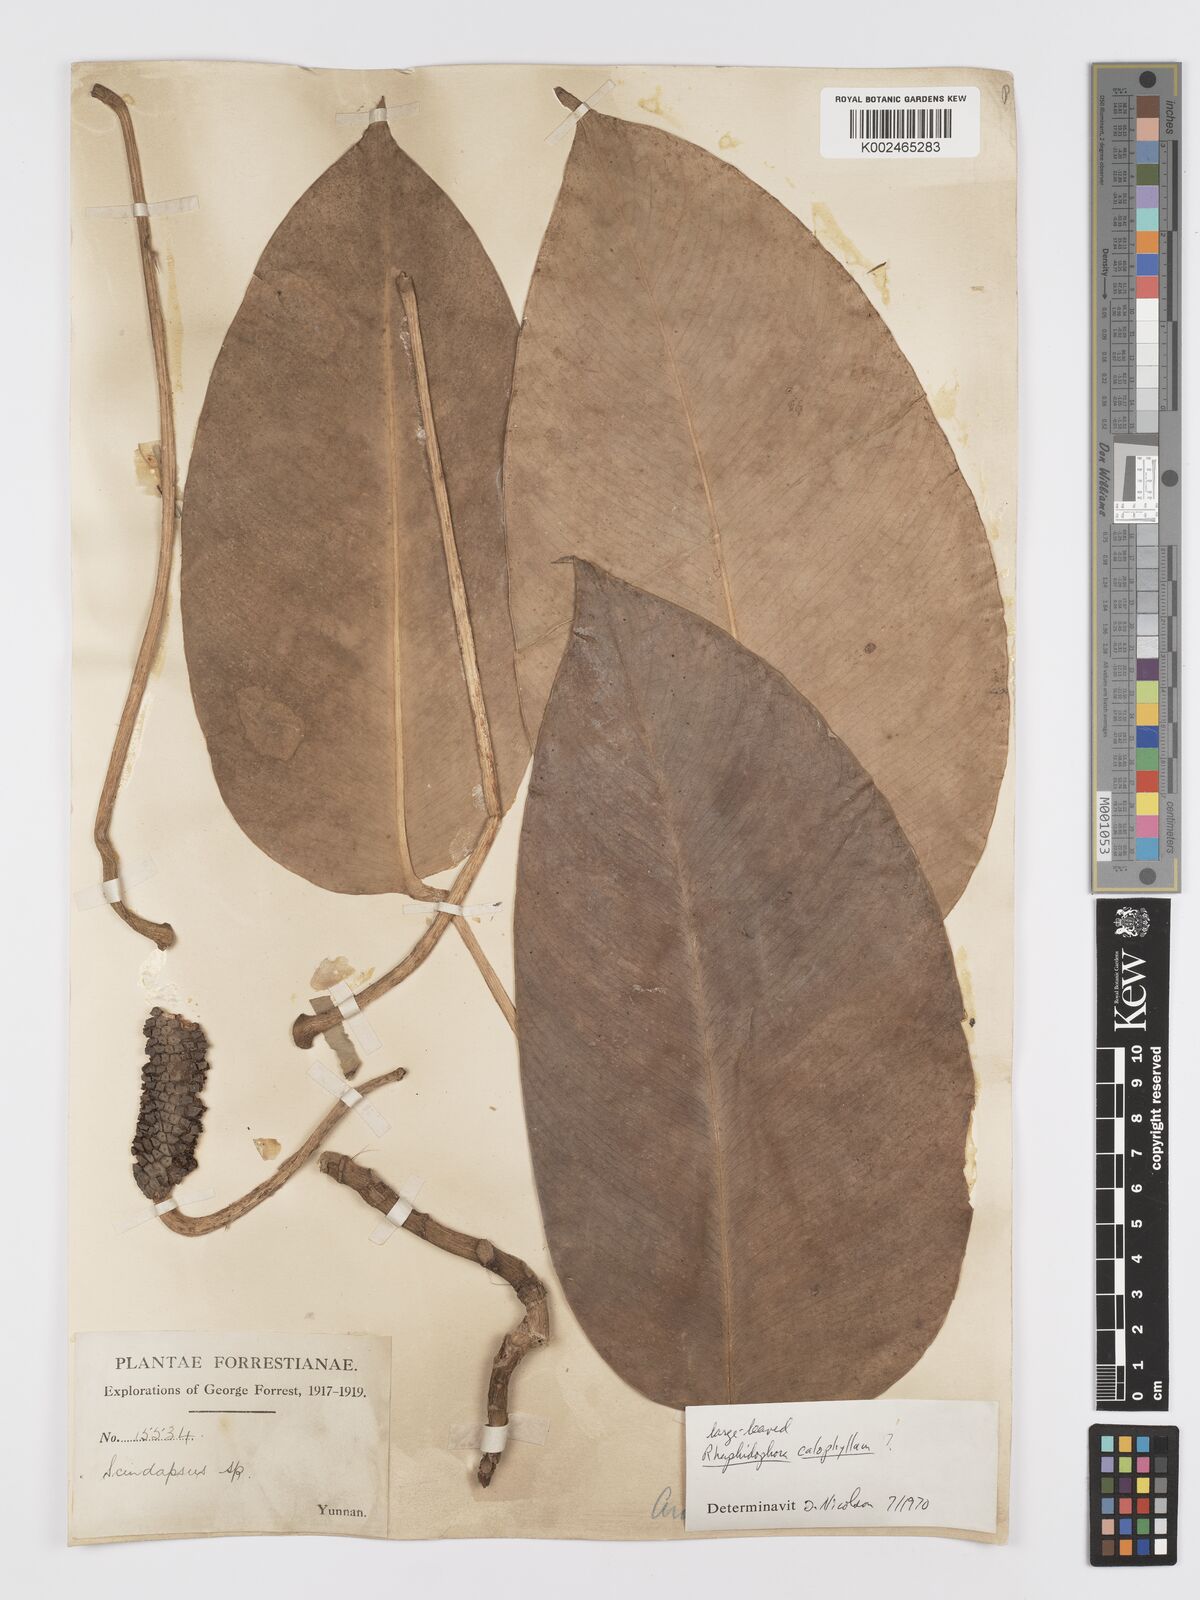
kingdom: Plantae
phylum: Tracheophyta
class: Liliopsida
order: Alismatales
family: Araceae
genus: Rhaphidophora
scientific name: Rhaphidophora calophylla
